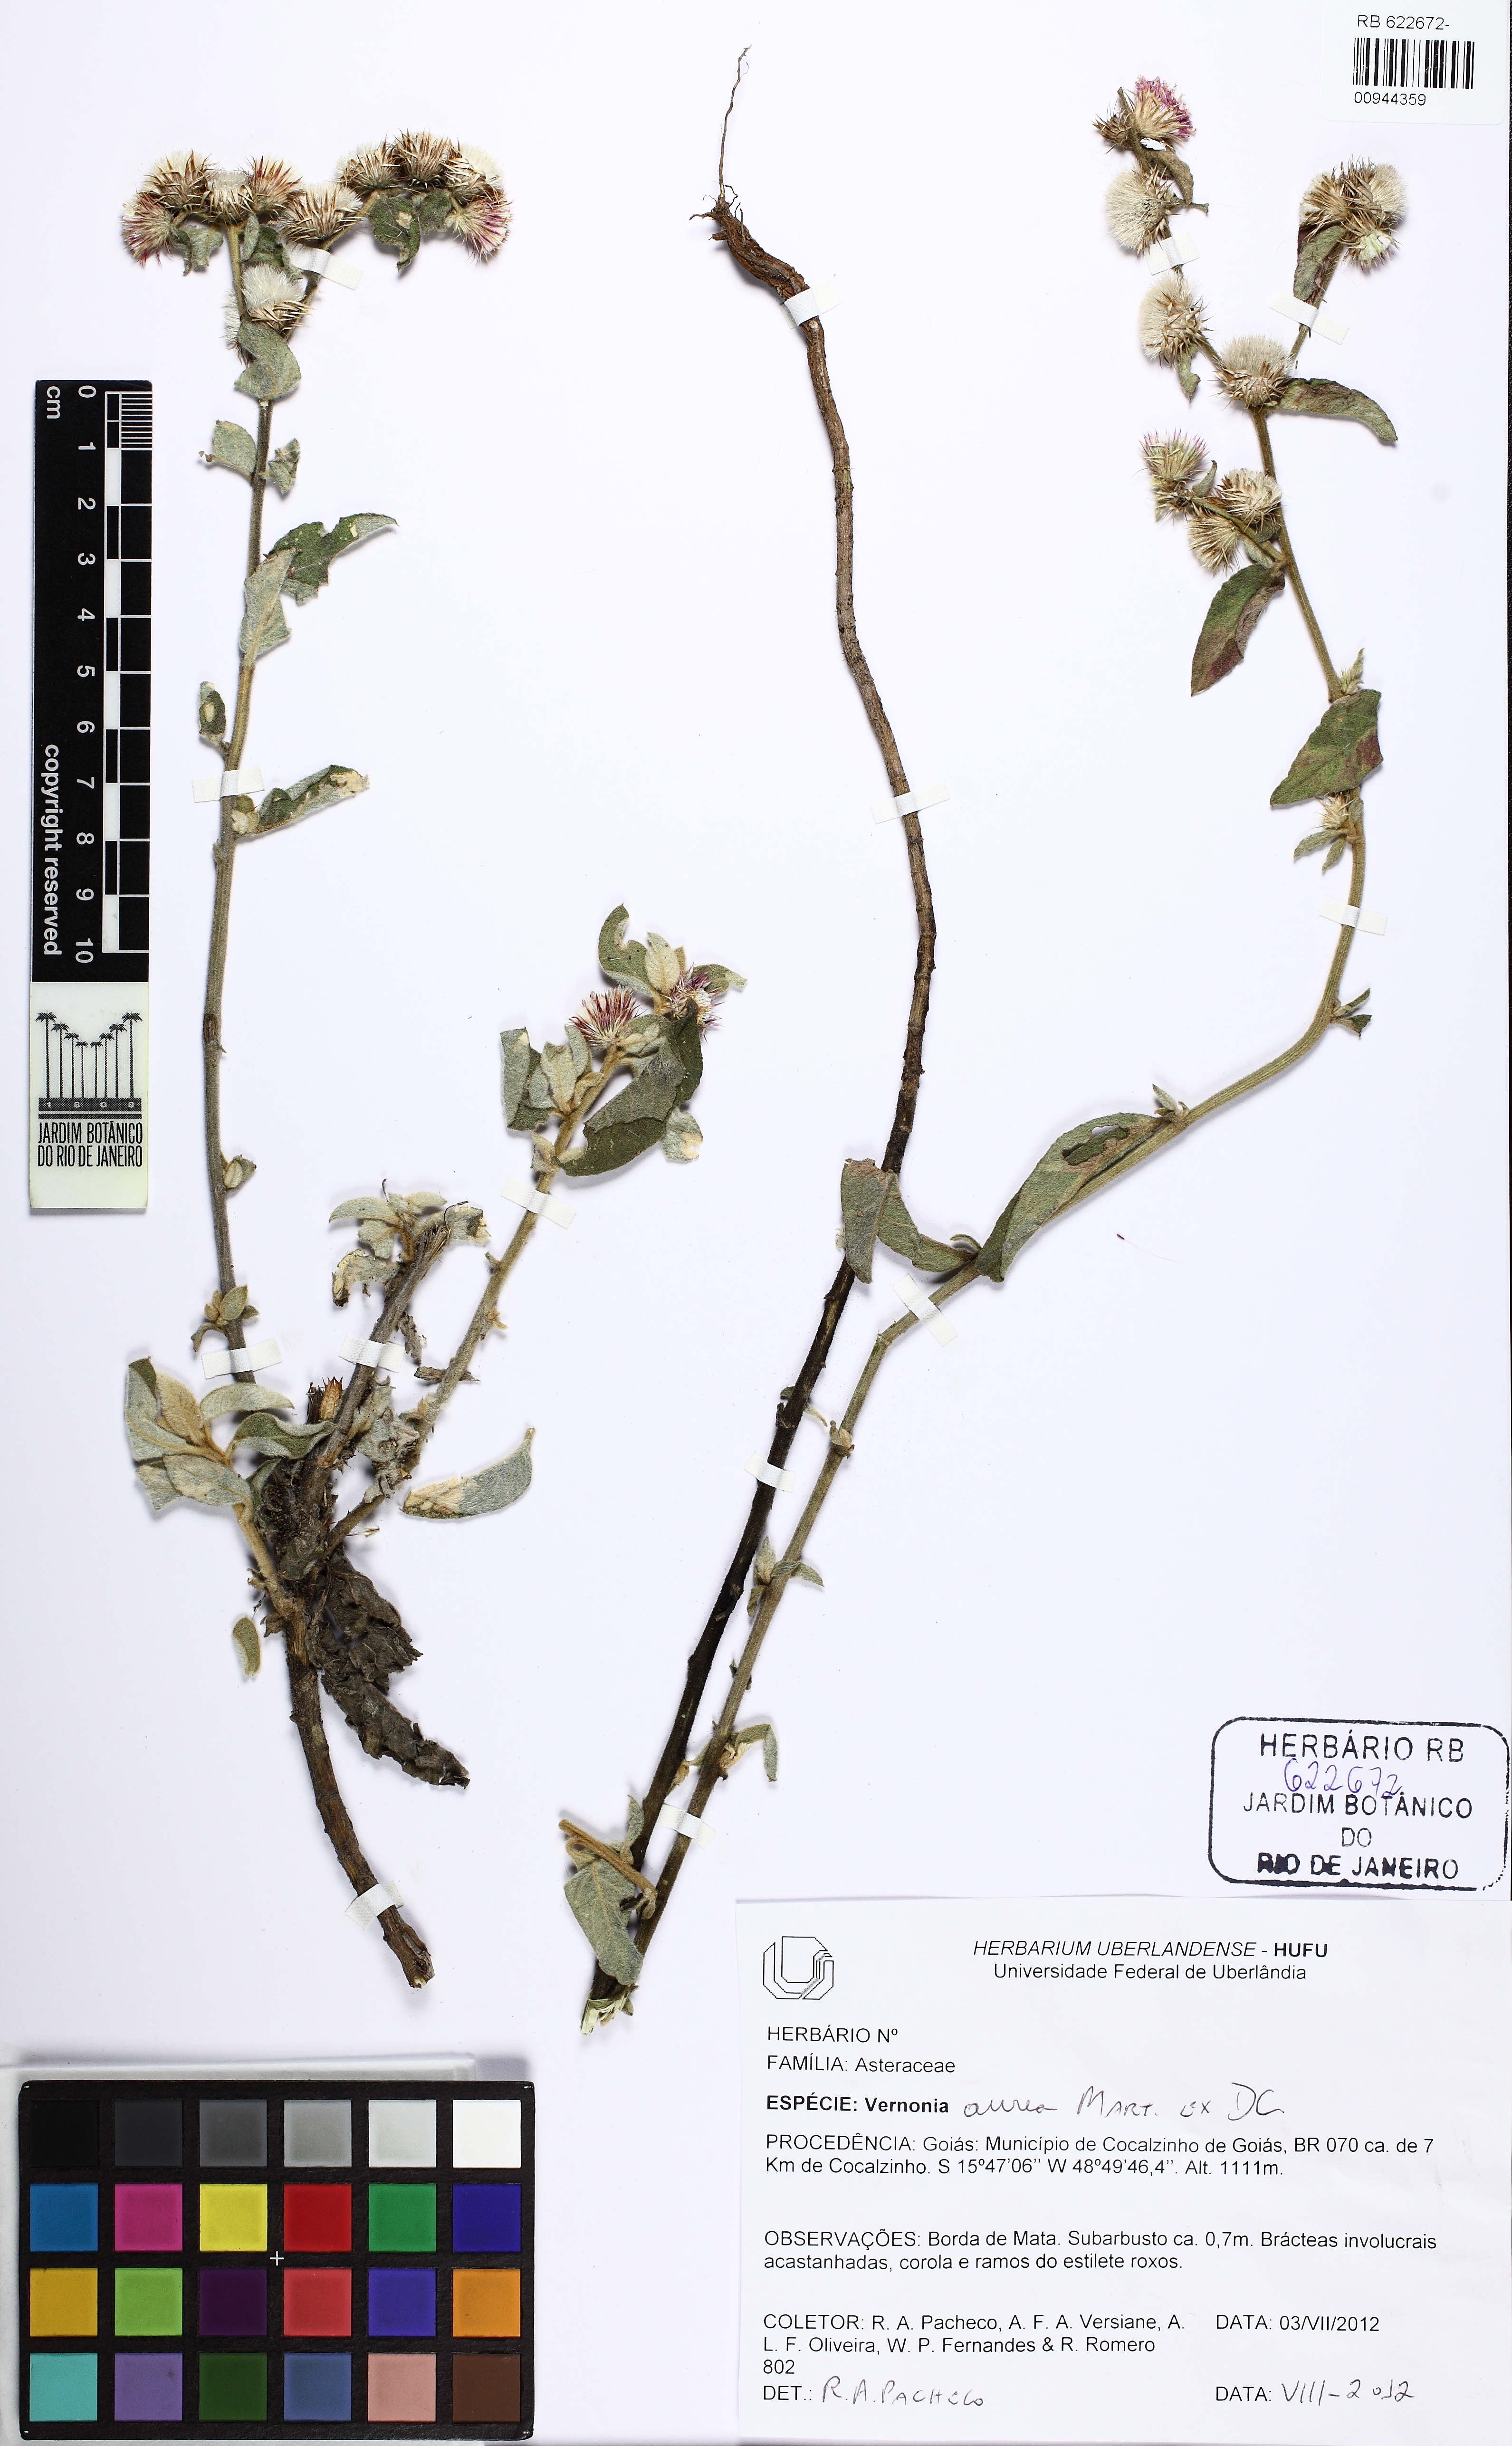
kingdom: Plantae
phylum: Tracheophyta
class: Magnoliopsida
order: Asterales
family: Asteraceae
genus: Lepidaploa
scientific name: Lepidaploa aurea
